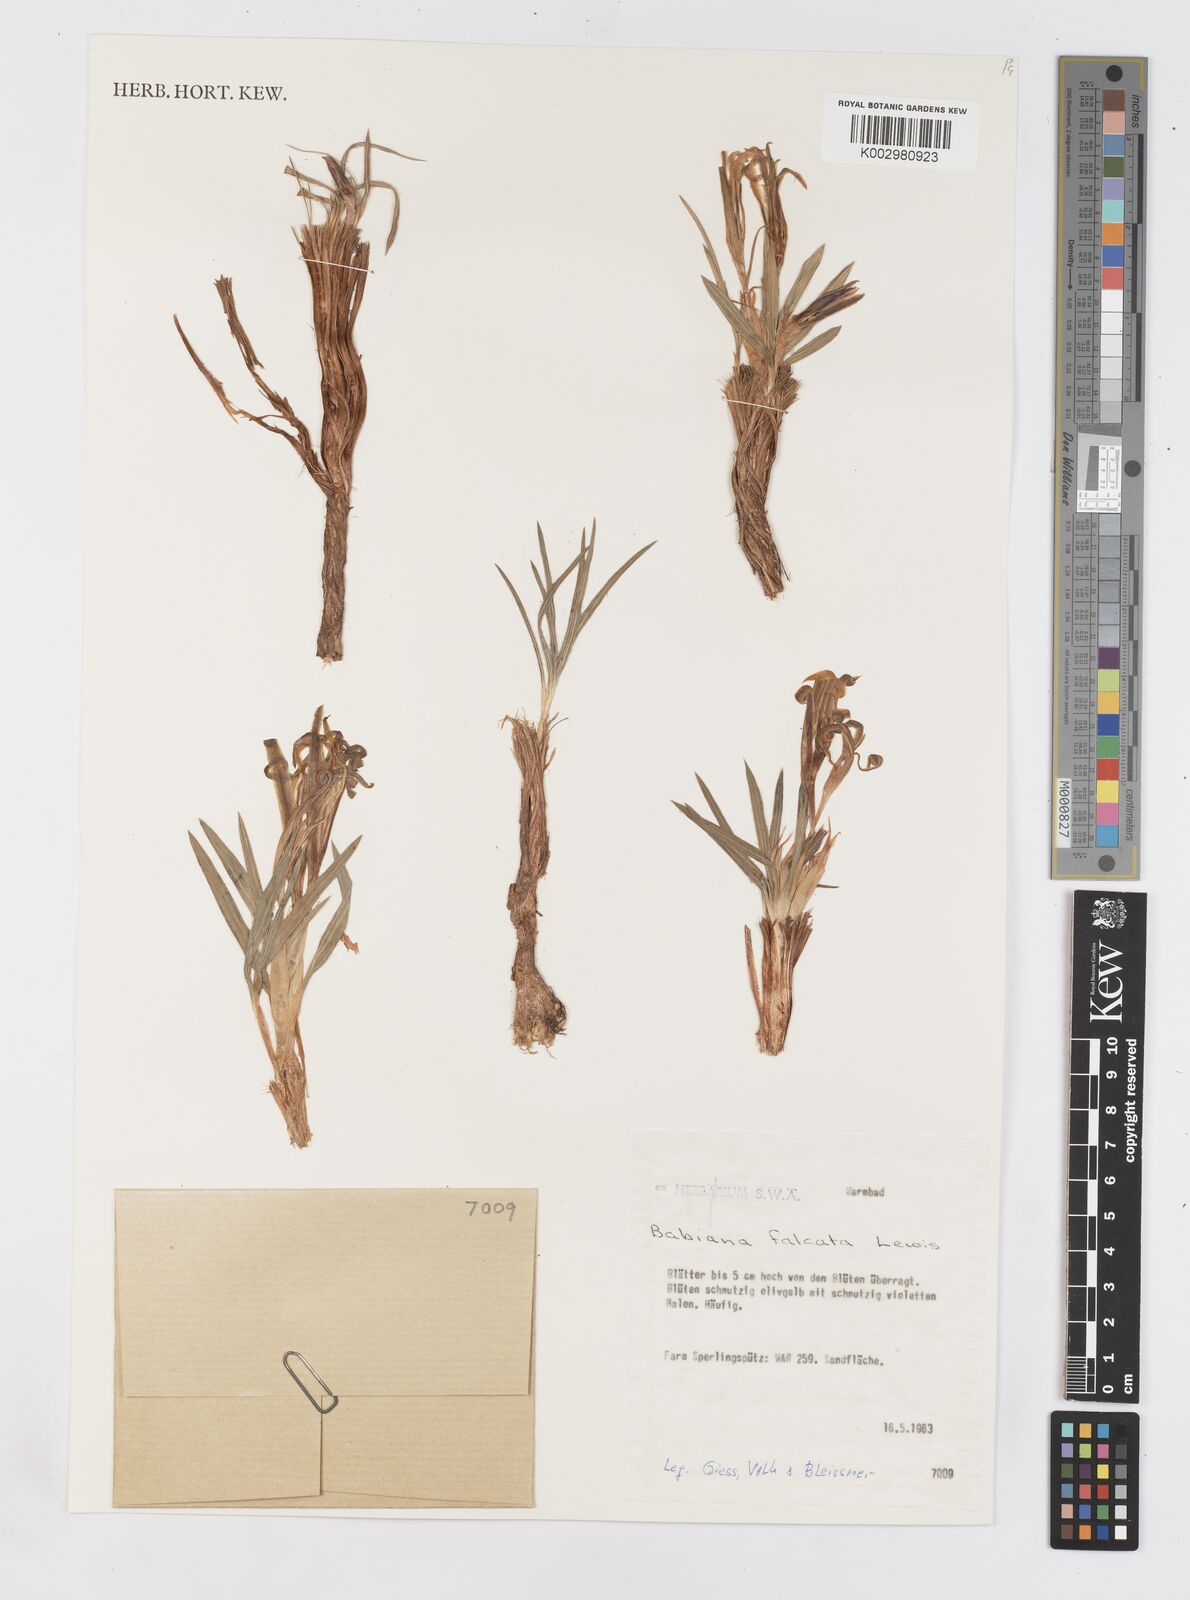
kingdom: Plantae
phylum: Tracheophyta
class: Liliopsida
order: Asparagales
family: Iridaceae
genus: Babiana
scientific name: Babiana hypogaea
